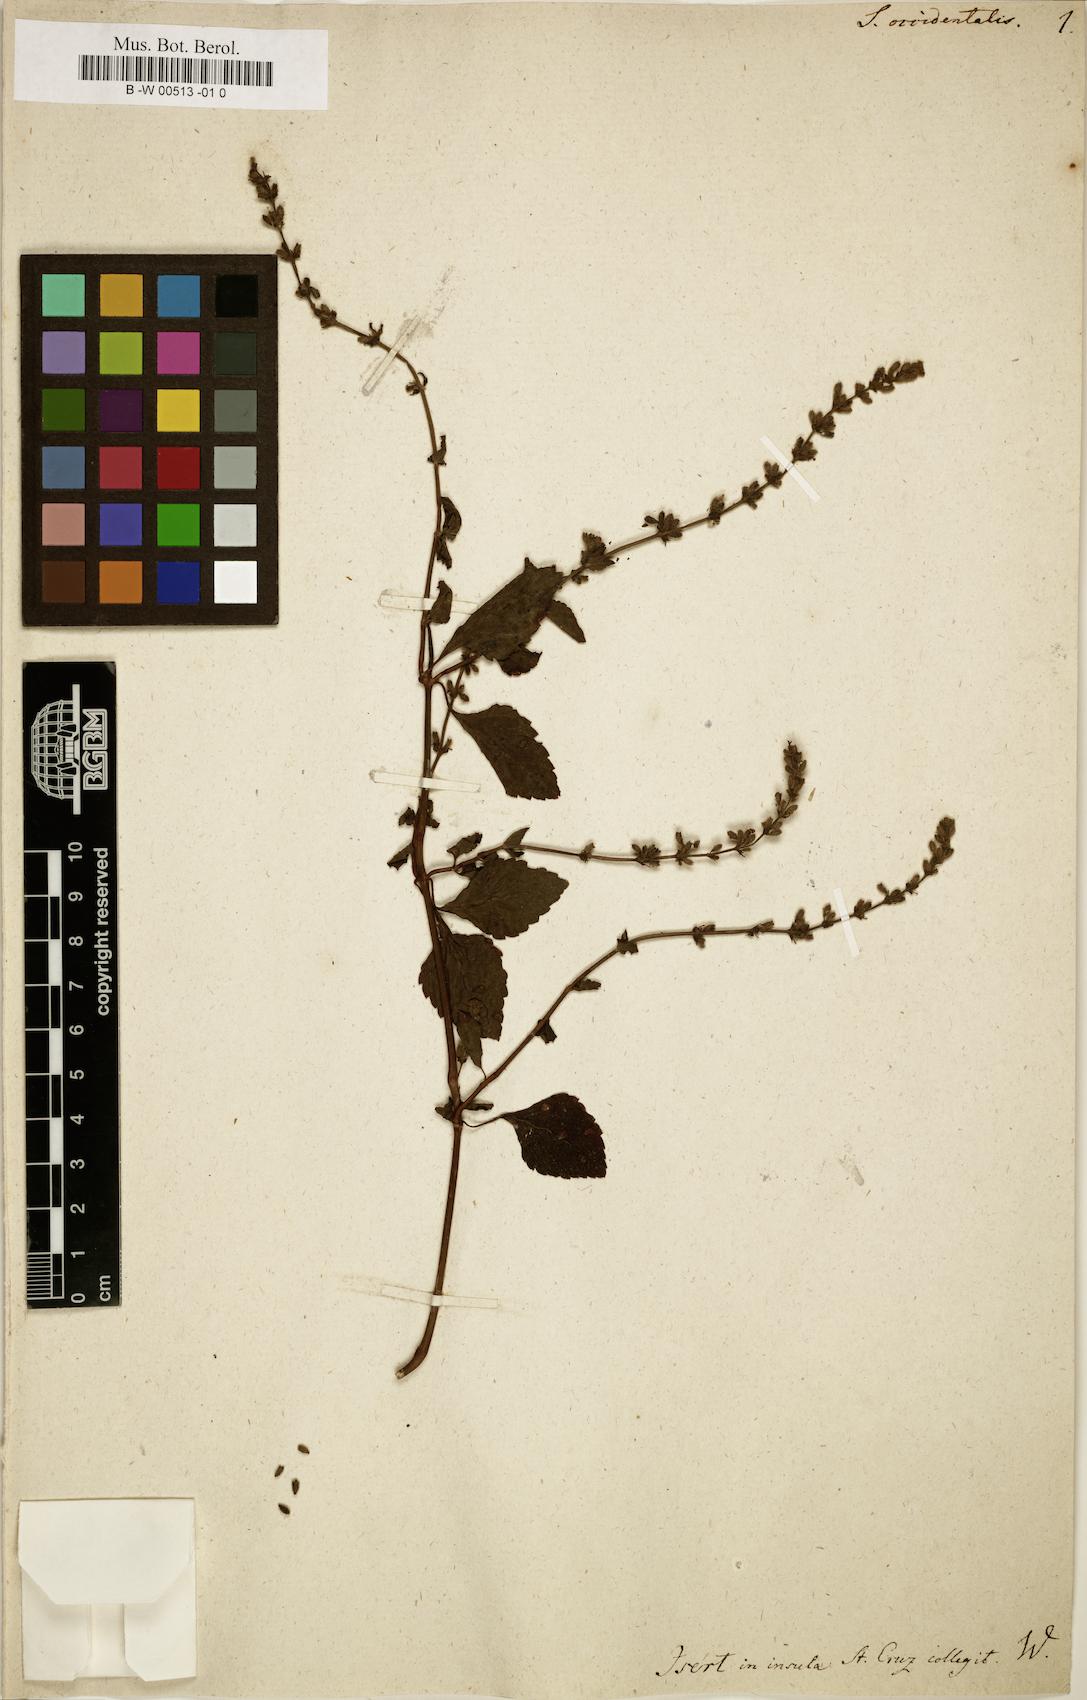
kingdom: Plantae
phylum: Tracheophyta
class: Magnoliopsida
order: Lamiales
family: Lamiaceae
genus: Salvia
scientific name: Salvia occidentalis
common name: West indian sage
